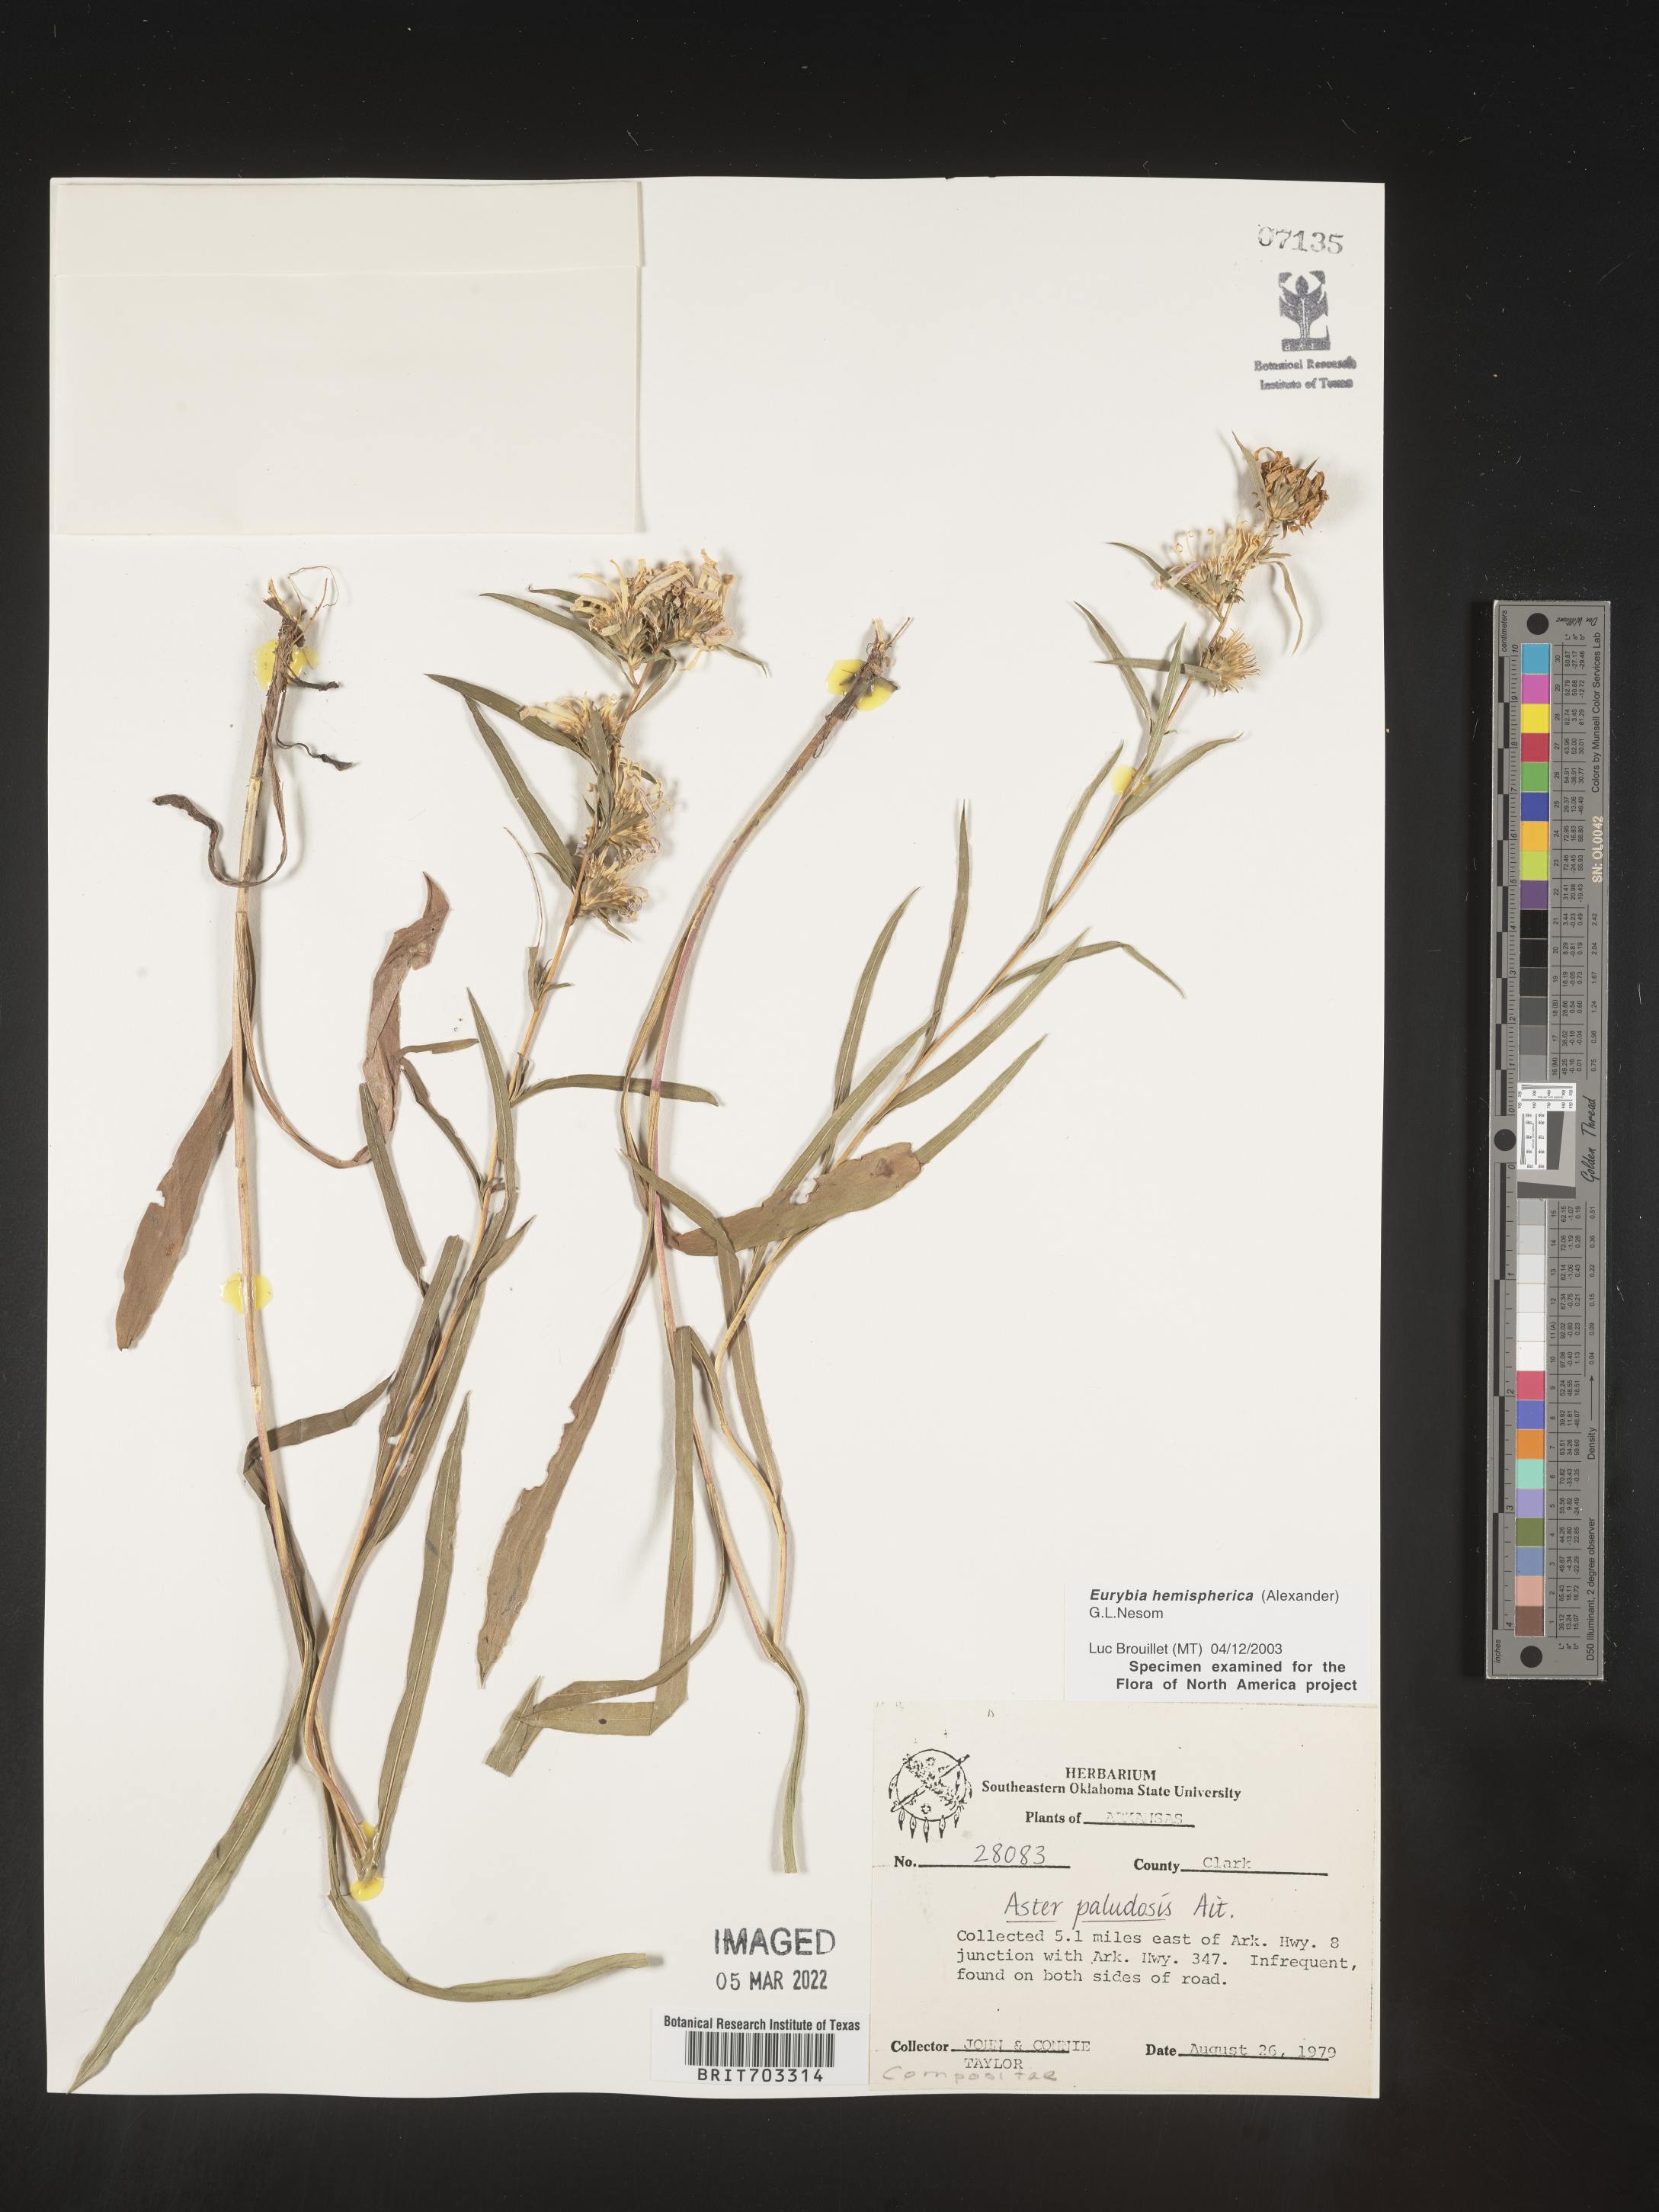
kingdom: Plantae
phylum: Tracheophyta
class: Magnoliopsida
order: Asterales
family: Asteraceae
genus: Eurybia
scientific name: Eurybia hemispherica
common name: Showy aster
